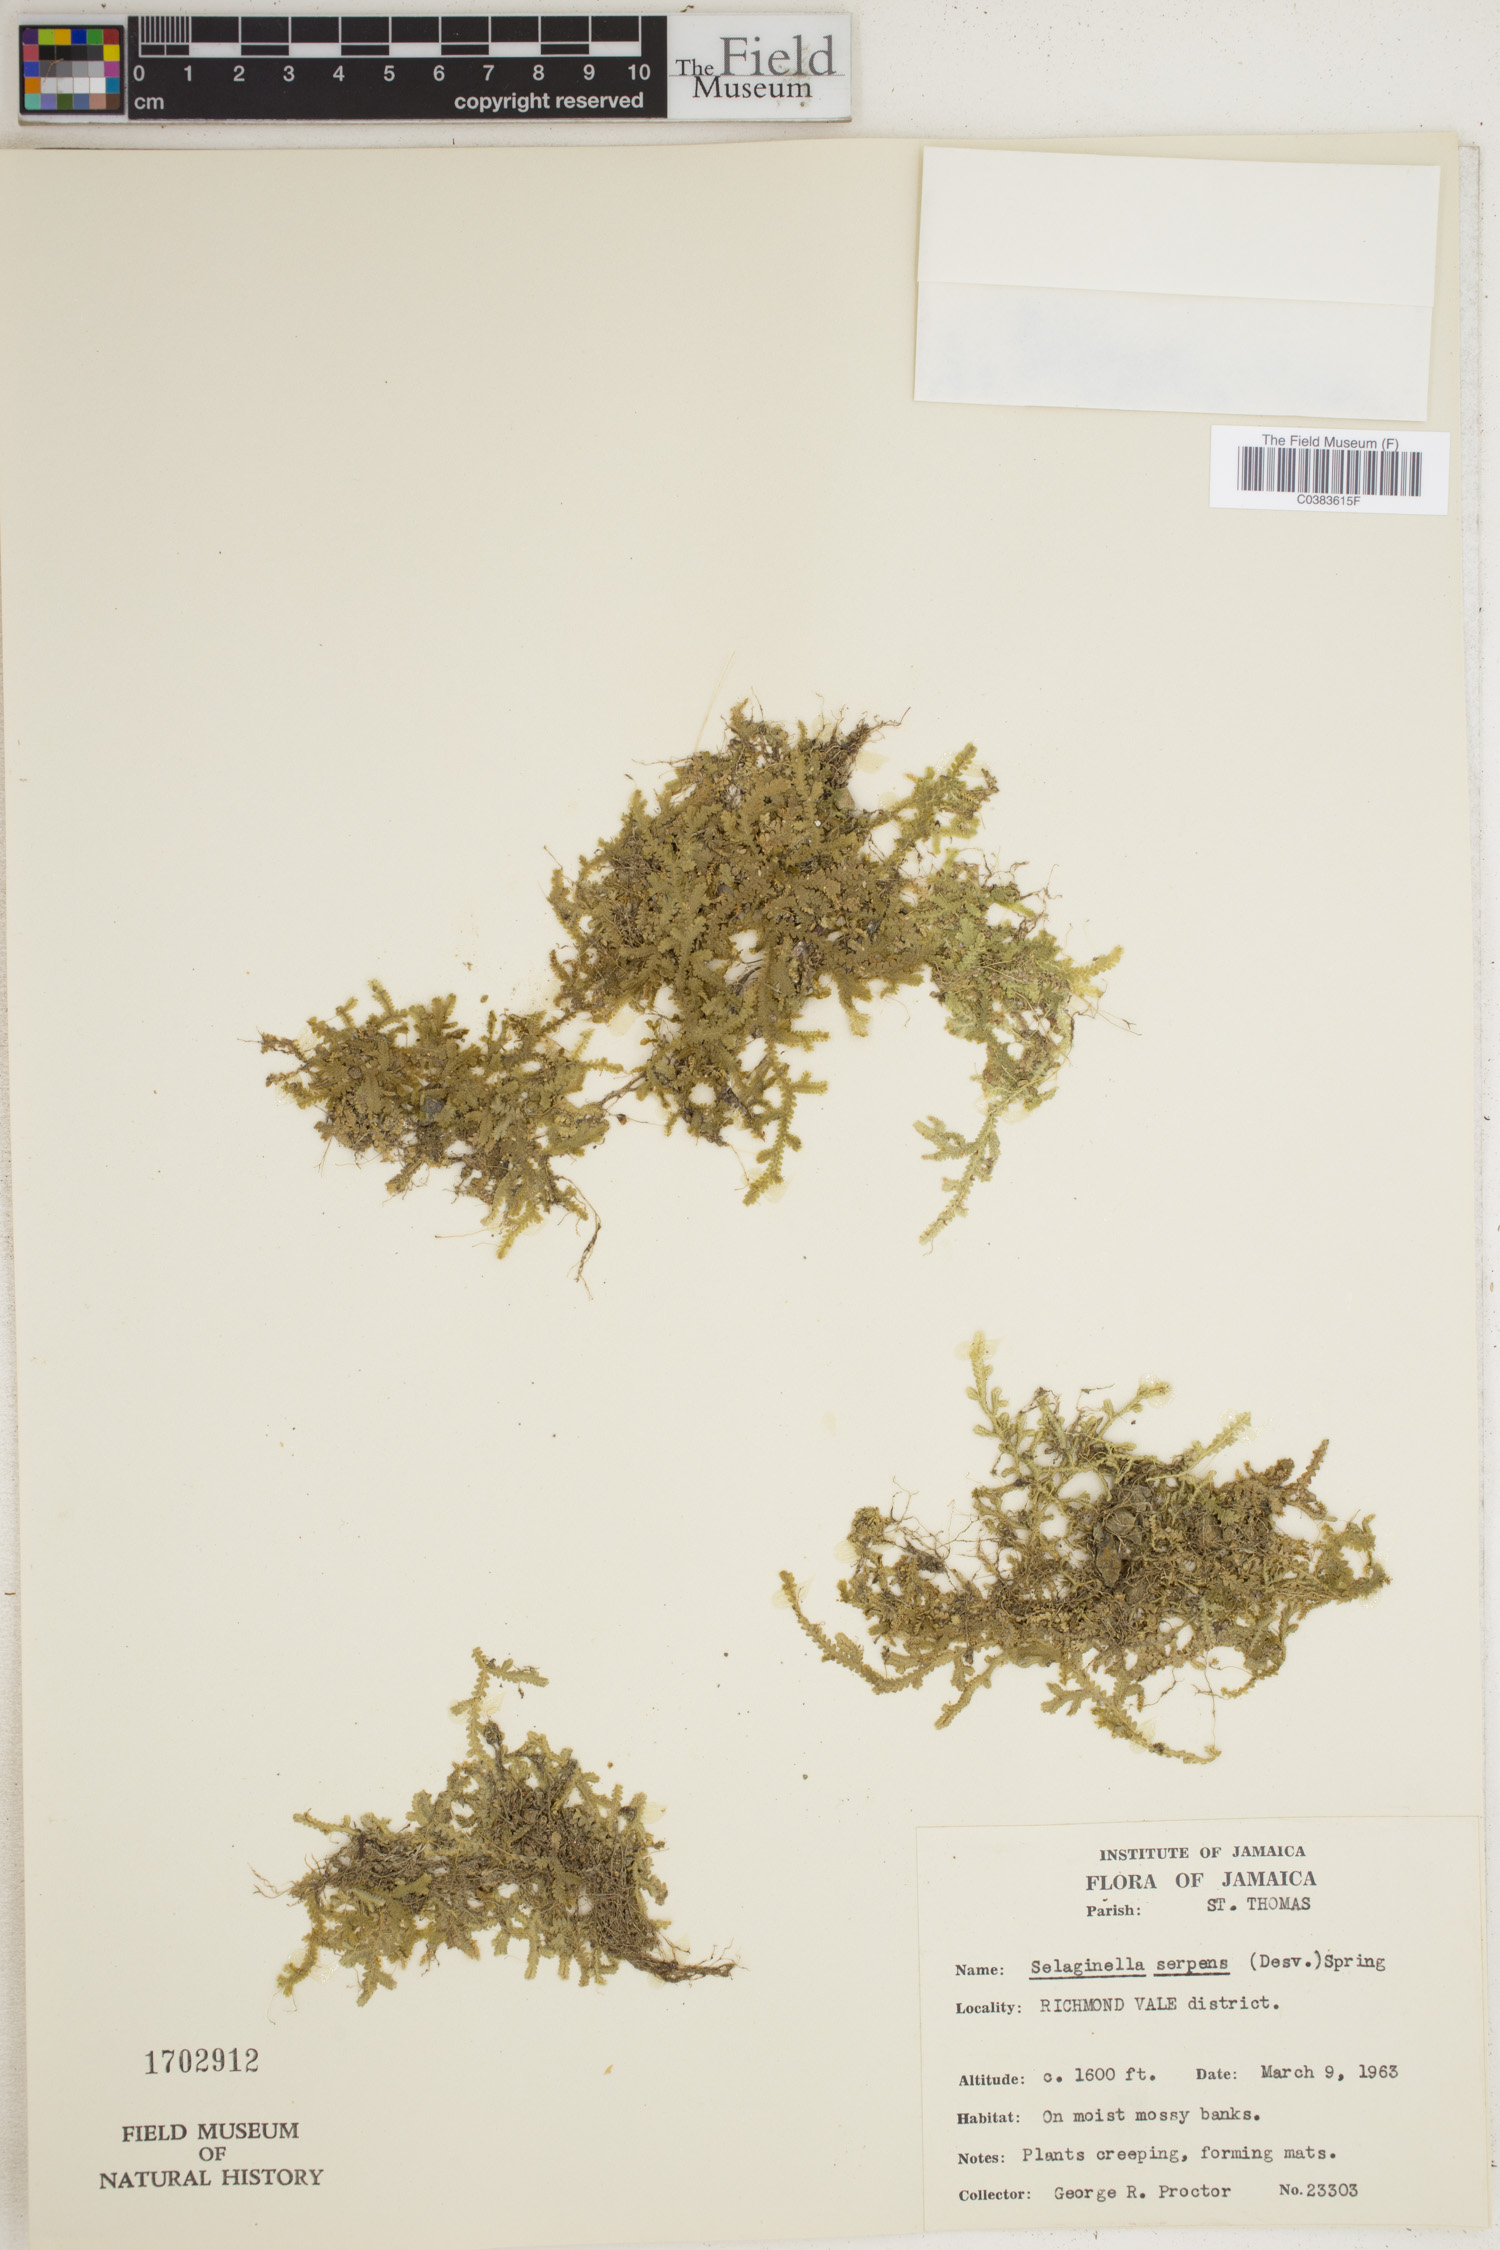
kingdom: Plantae
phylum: Tracheophyta
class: Lycopodiopsida
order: Selaginellales
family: Selaginellaceae
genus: Selaginella
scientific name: Selaginella serpens
